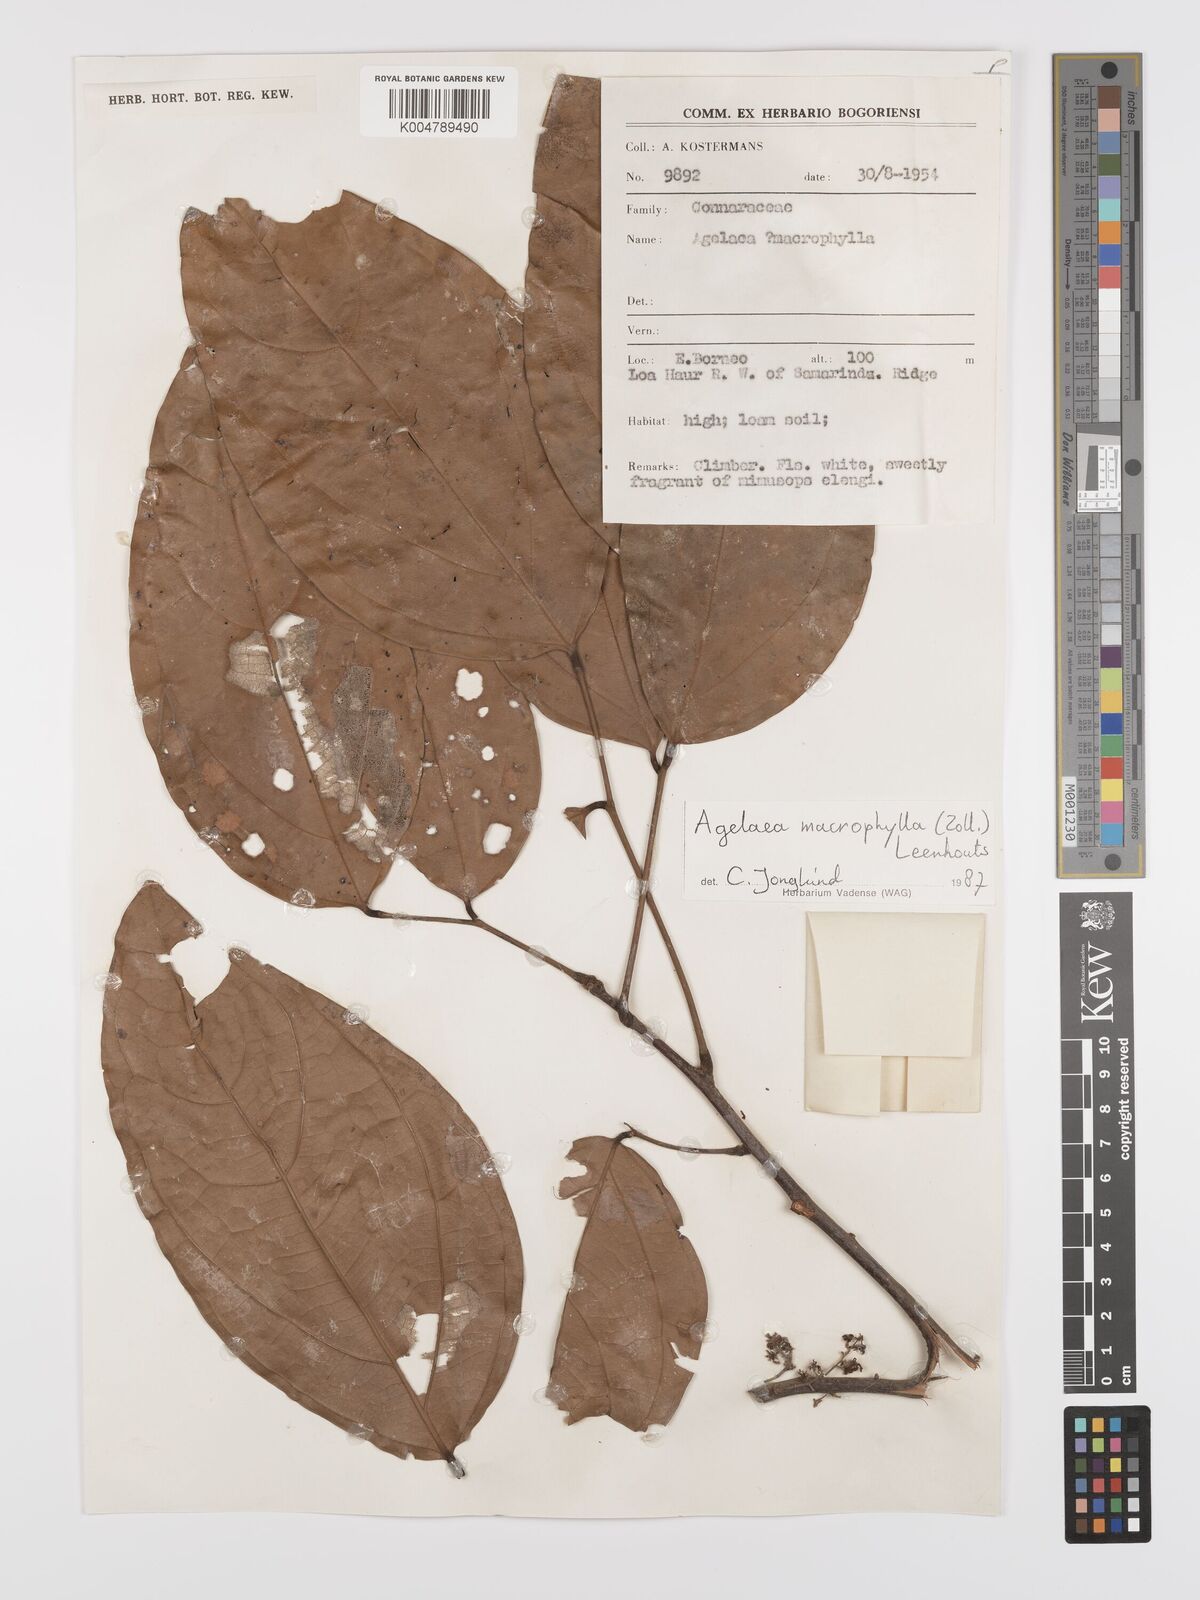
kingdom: Plantae
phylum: Tracheophyta
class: Magnoliopsida
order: Oxalidales
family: Connaraceae
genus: Agelaea
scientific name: Agelaea macrophylla
